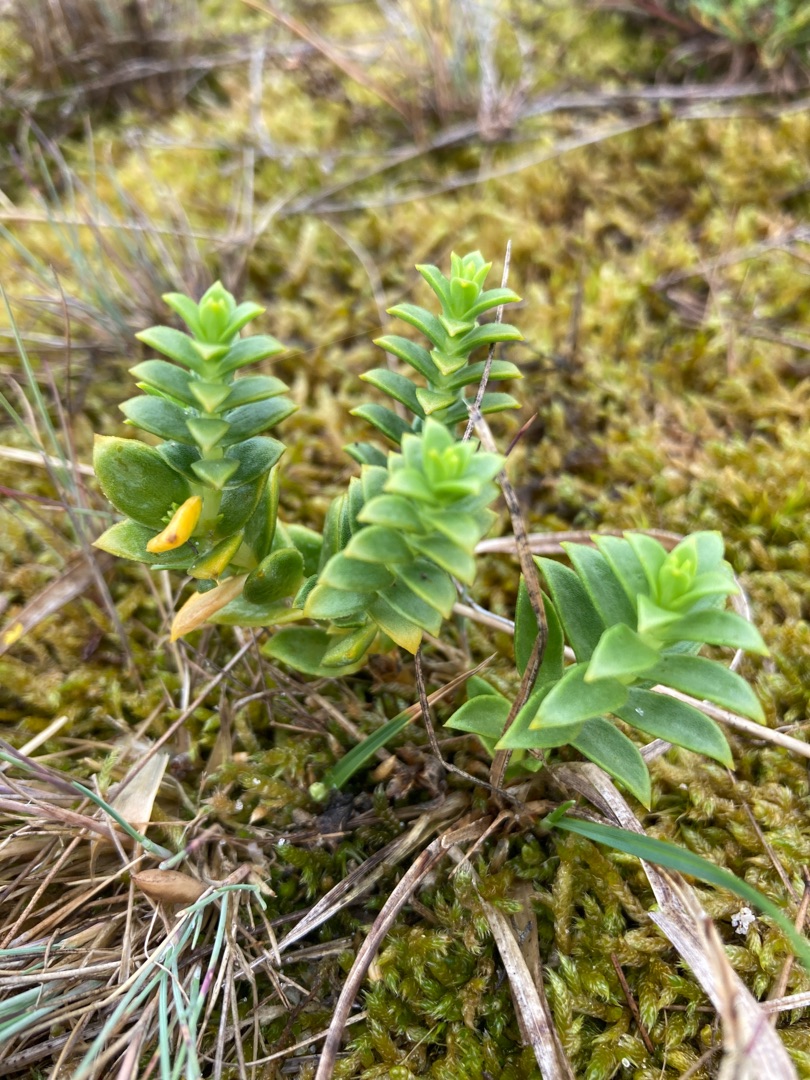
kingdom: Plantae
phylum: Tracheophyta
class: Magnoliopsida
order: Caryophyllales
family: Caryophyllaceae
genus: Honckenya
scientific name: Honckenya peploides
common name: Strandarve
